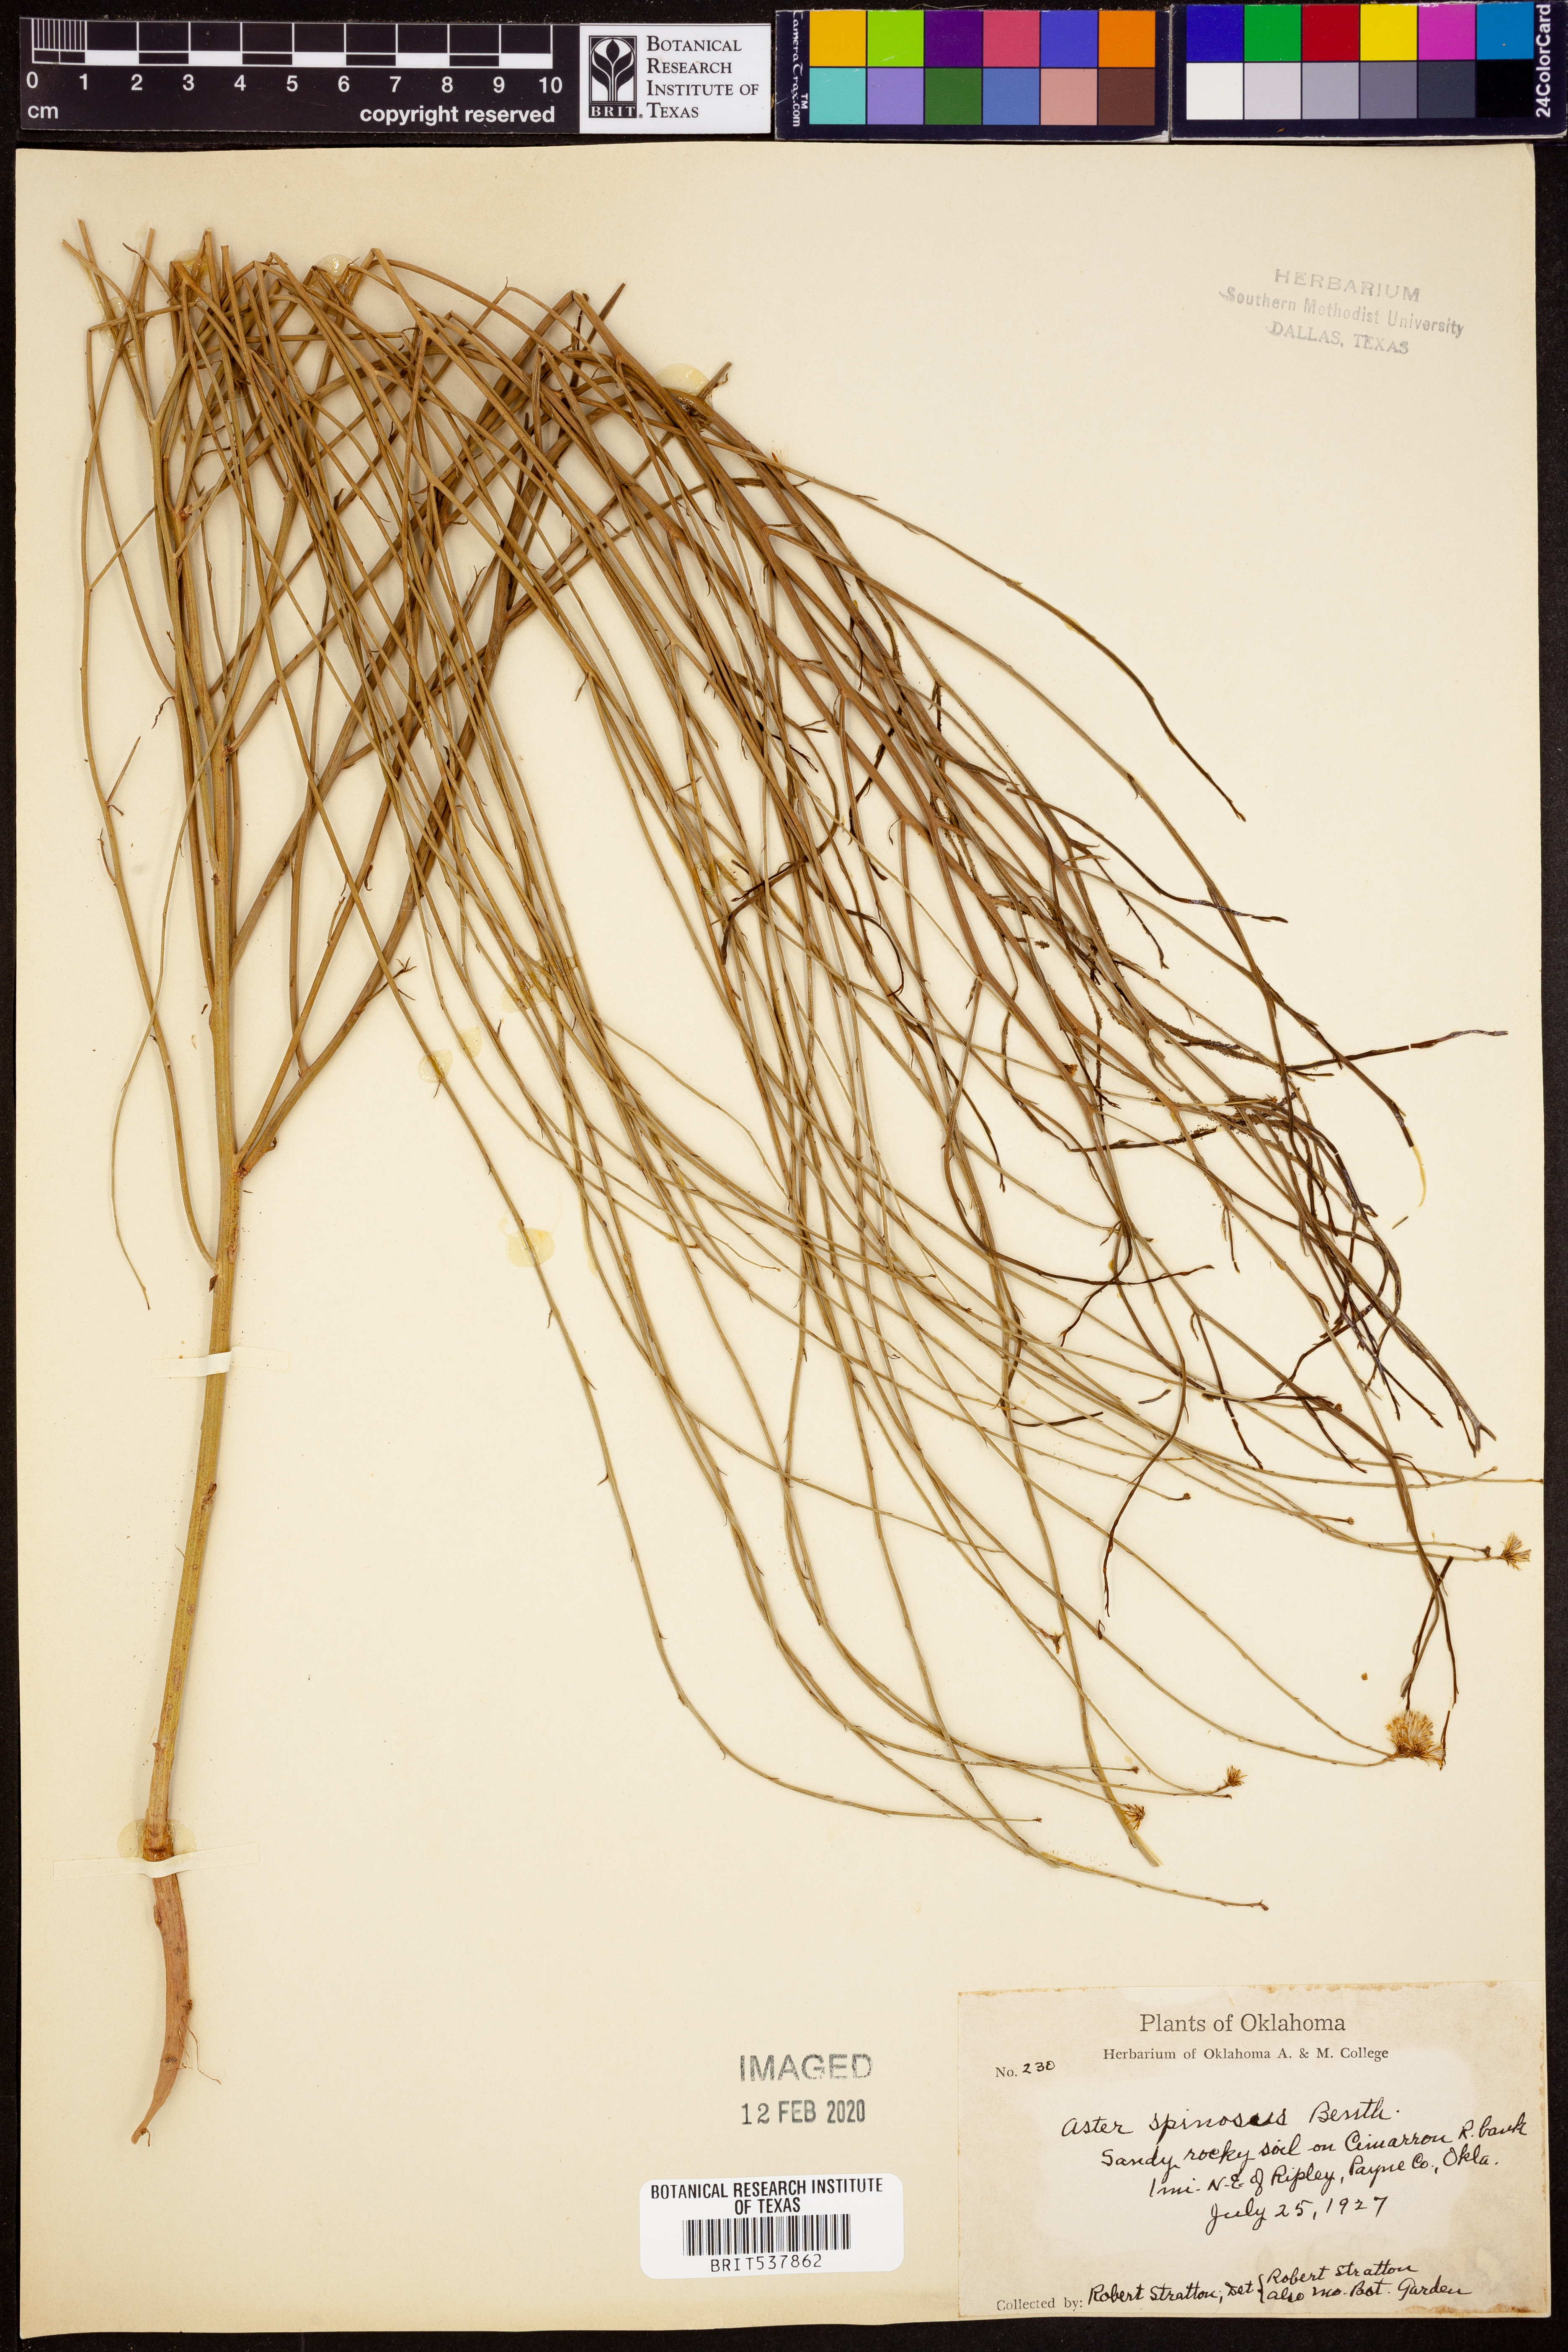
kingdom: Plantae
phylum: Tracheophyta
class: Magnoliopsida
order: Asterales
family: Asteraceae
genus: Chloracantha
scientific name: Chloracantha spinosa
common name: Mexican devilweed
